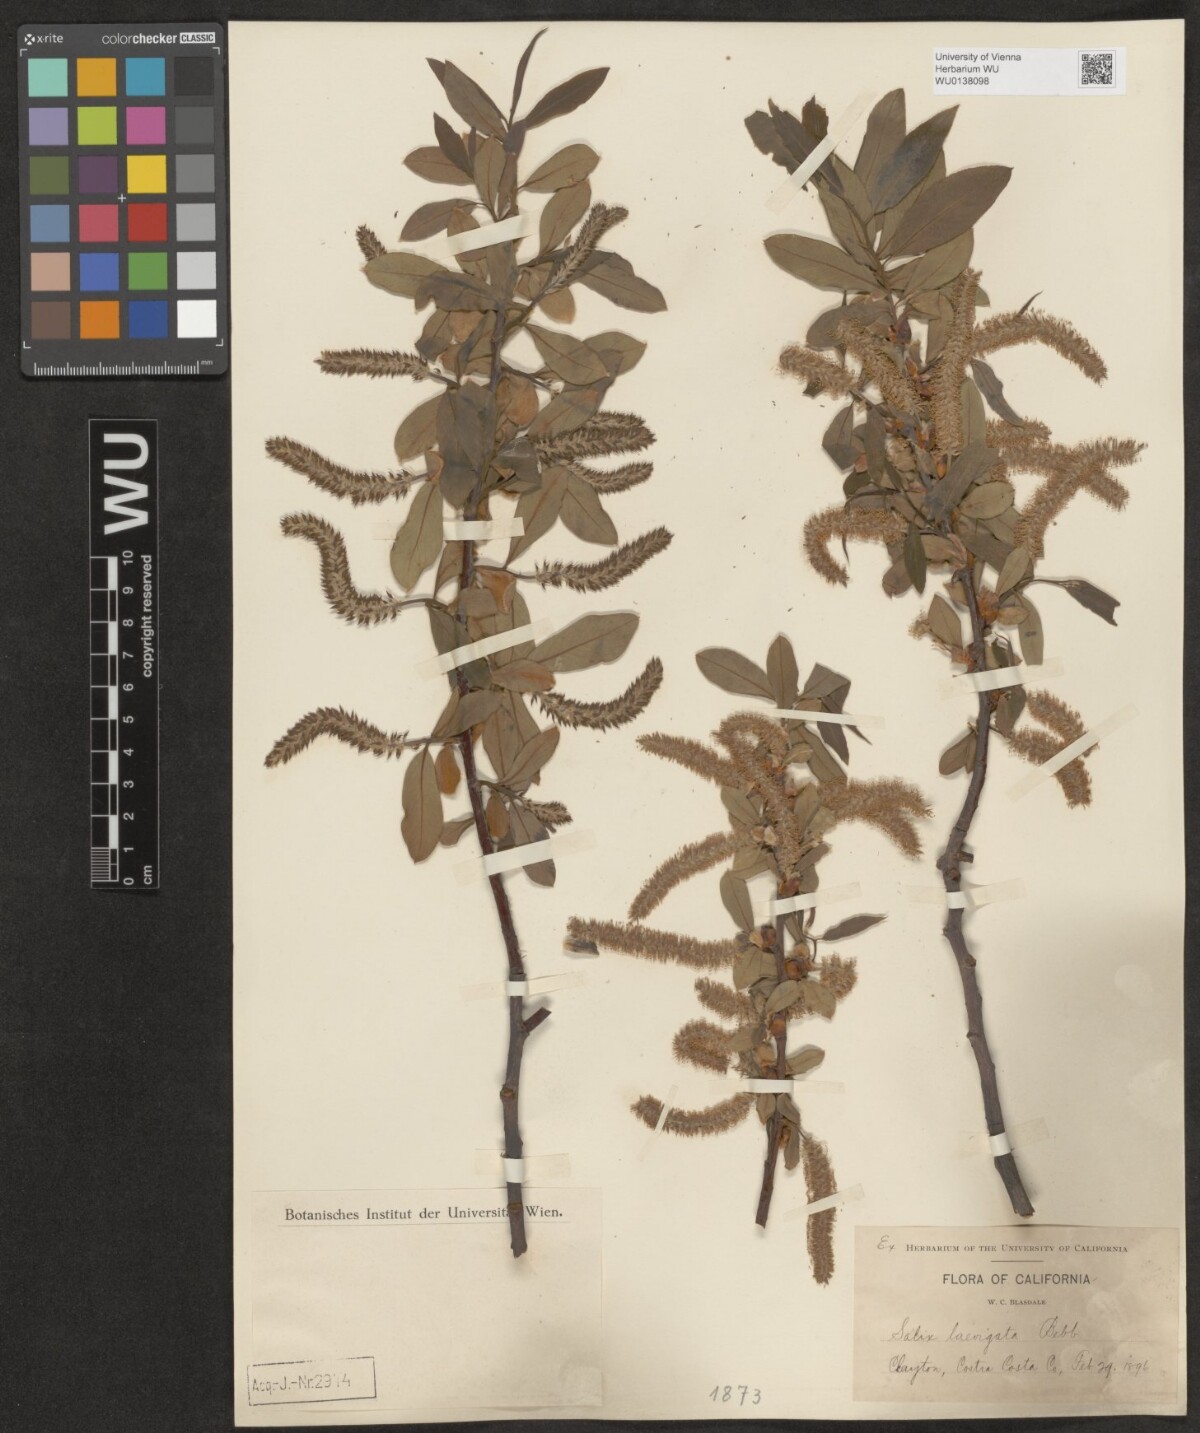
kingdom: Plantae
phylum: Tracheophyta
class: Magnoliopsida
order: Malpighiales
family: Salicaceae
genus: Salix
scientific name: Salix laevigata
